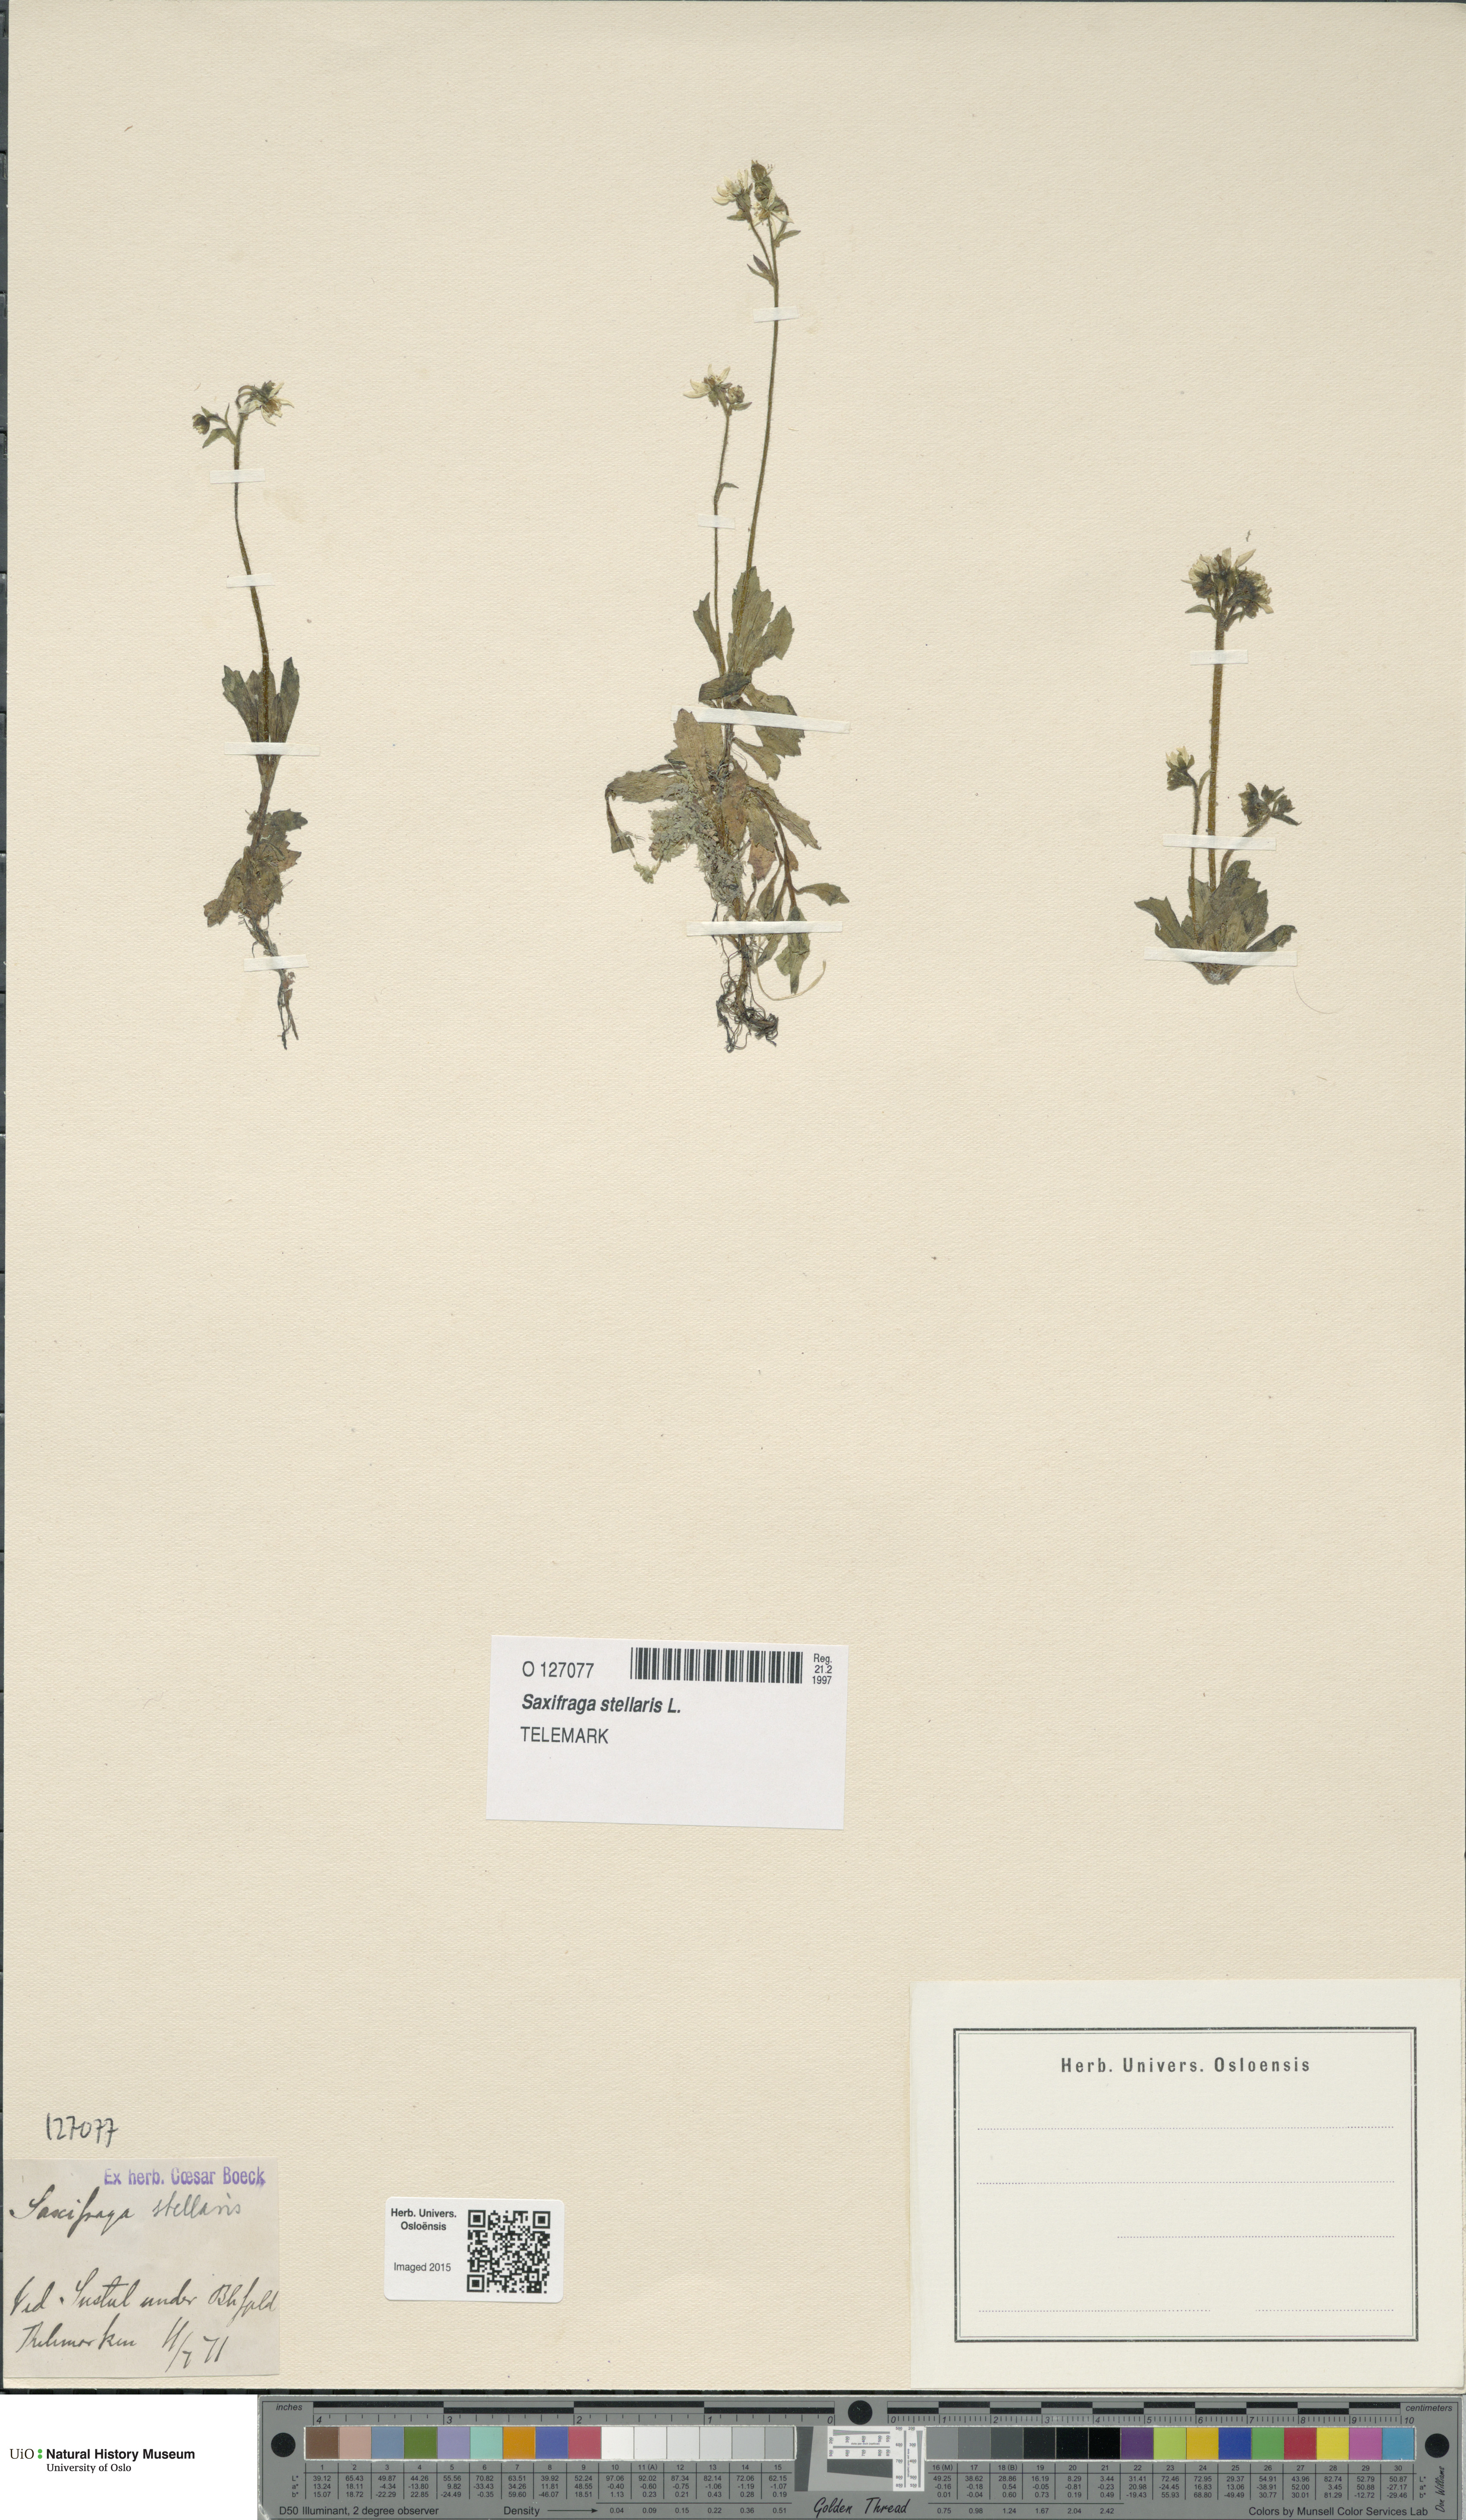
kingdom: Plantae
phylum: Tracheophyta
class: Magnoliopsida
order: Saxifragales
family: Saxifragaceae
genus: Micranthes
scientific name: Micranthes stellaris
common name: Starry saxifrage
